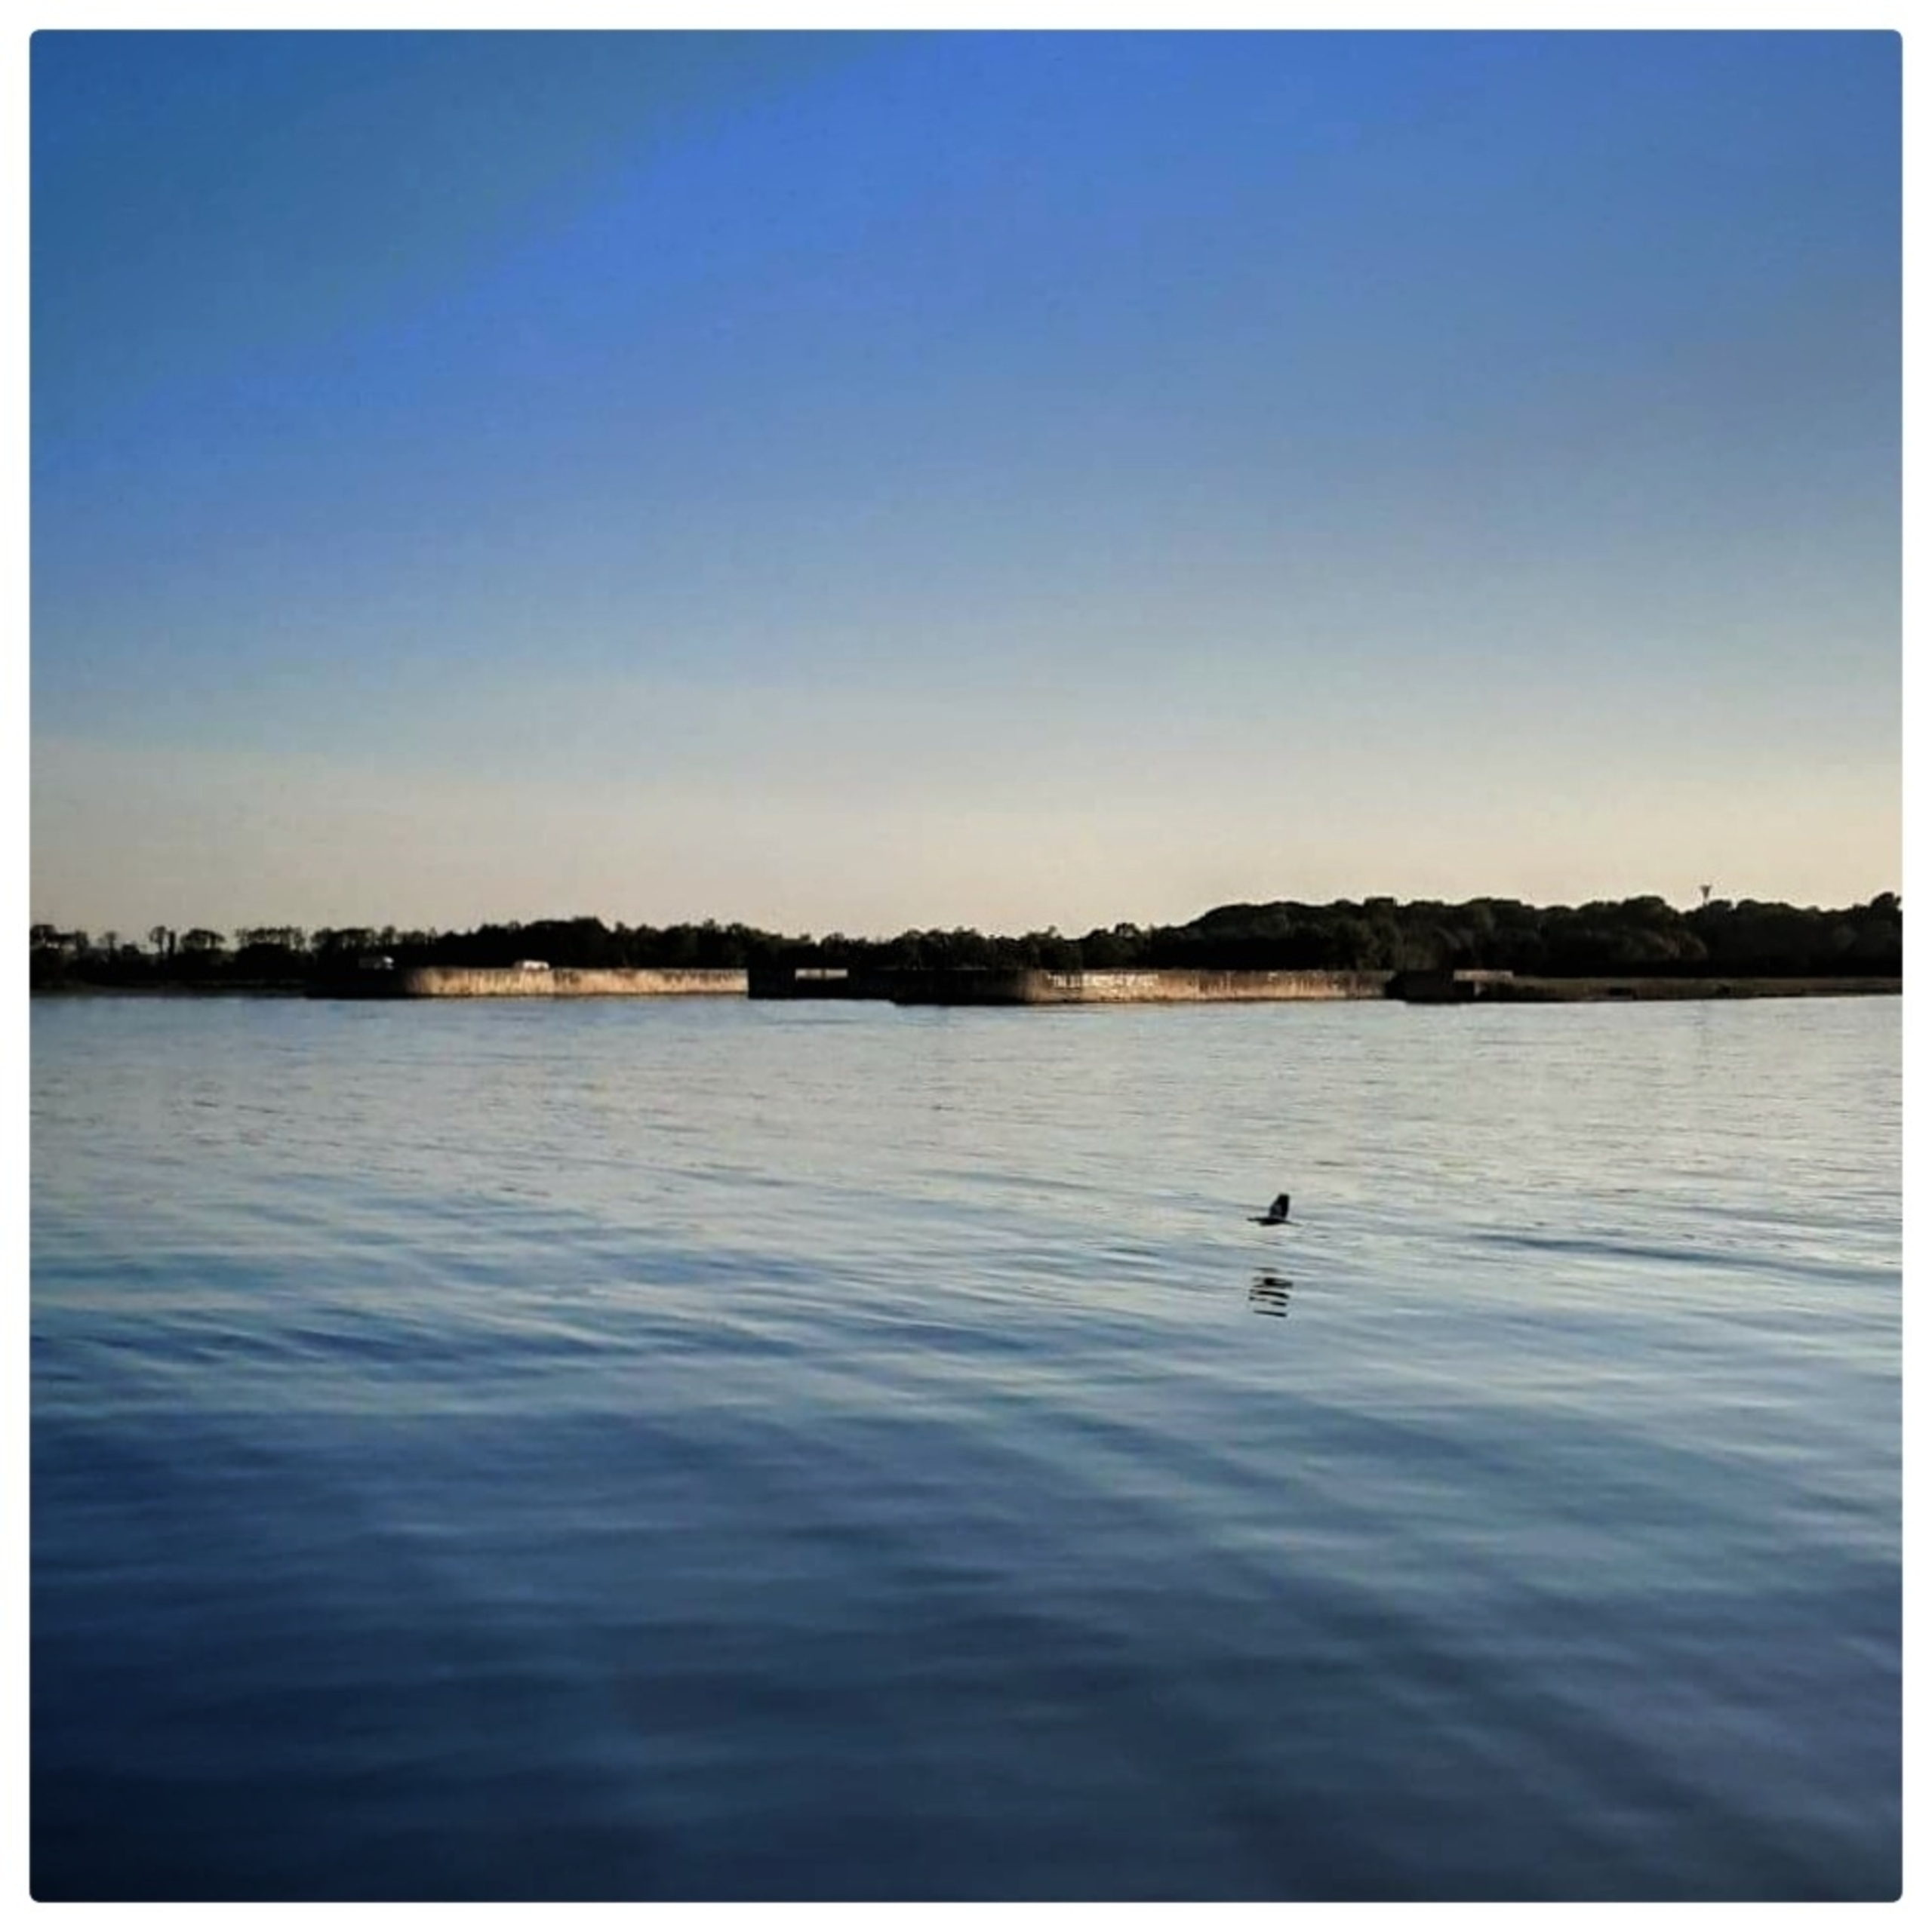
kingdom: Animalia
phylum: Chordata
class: Aves
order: Pelecaniformes
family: Ardeidae
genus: Ardea
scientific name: Ardea cinerea
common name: Fiskehejre
